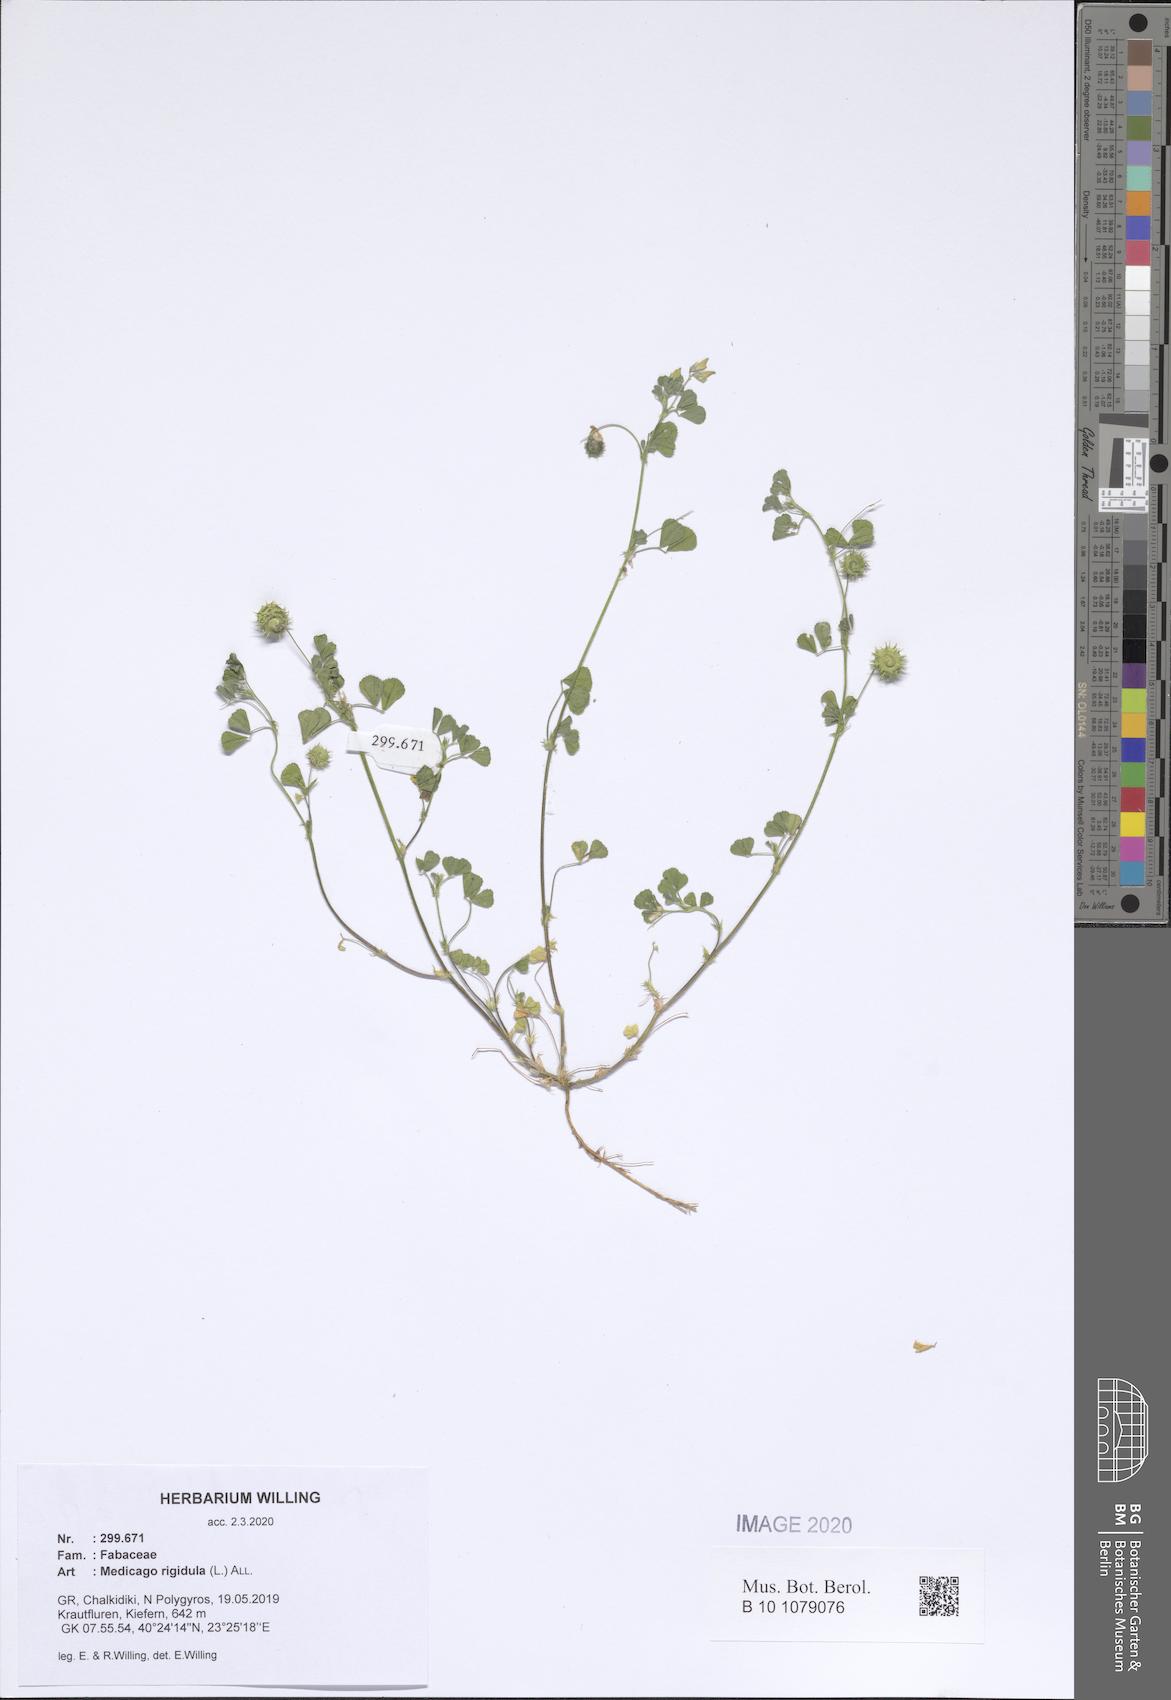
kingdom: Plantae
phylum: Tracheophyta
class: Magnoliopsida
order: Fabales
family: Fabaceae
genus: Medicago
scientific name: Medicago rigidula
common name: Tifton medic
